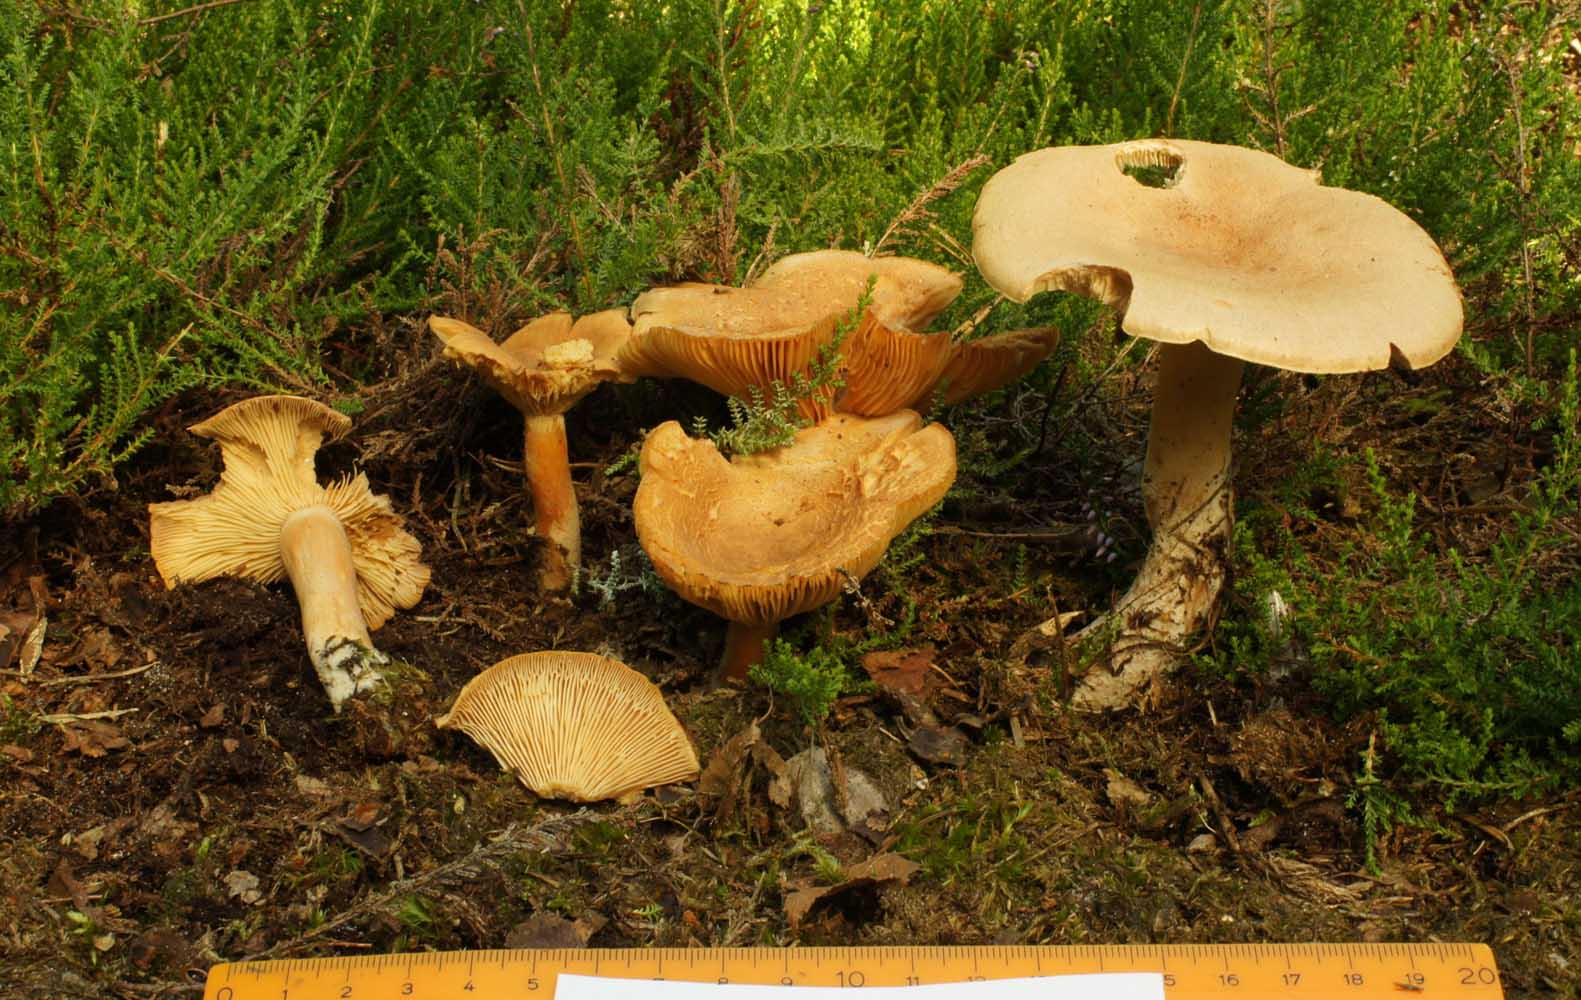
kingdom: Fungi
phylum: Basidiomycota
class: Agaricomycetes
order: Russulales
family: Russulaceae
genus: Lactarius
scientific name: Lactarius helvus
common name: mose-mælkehat
